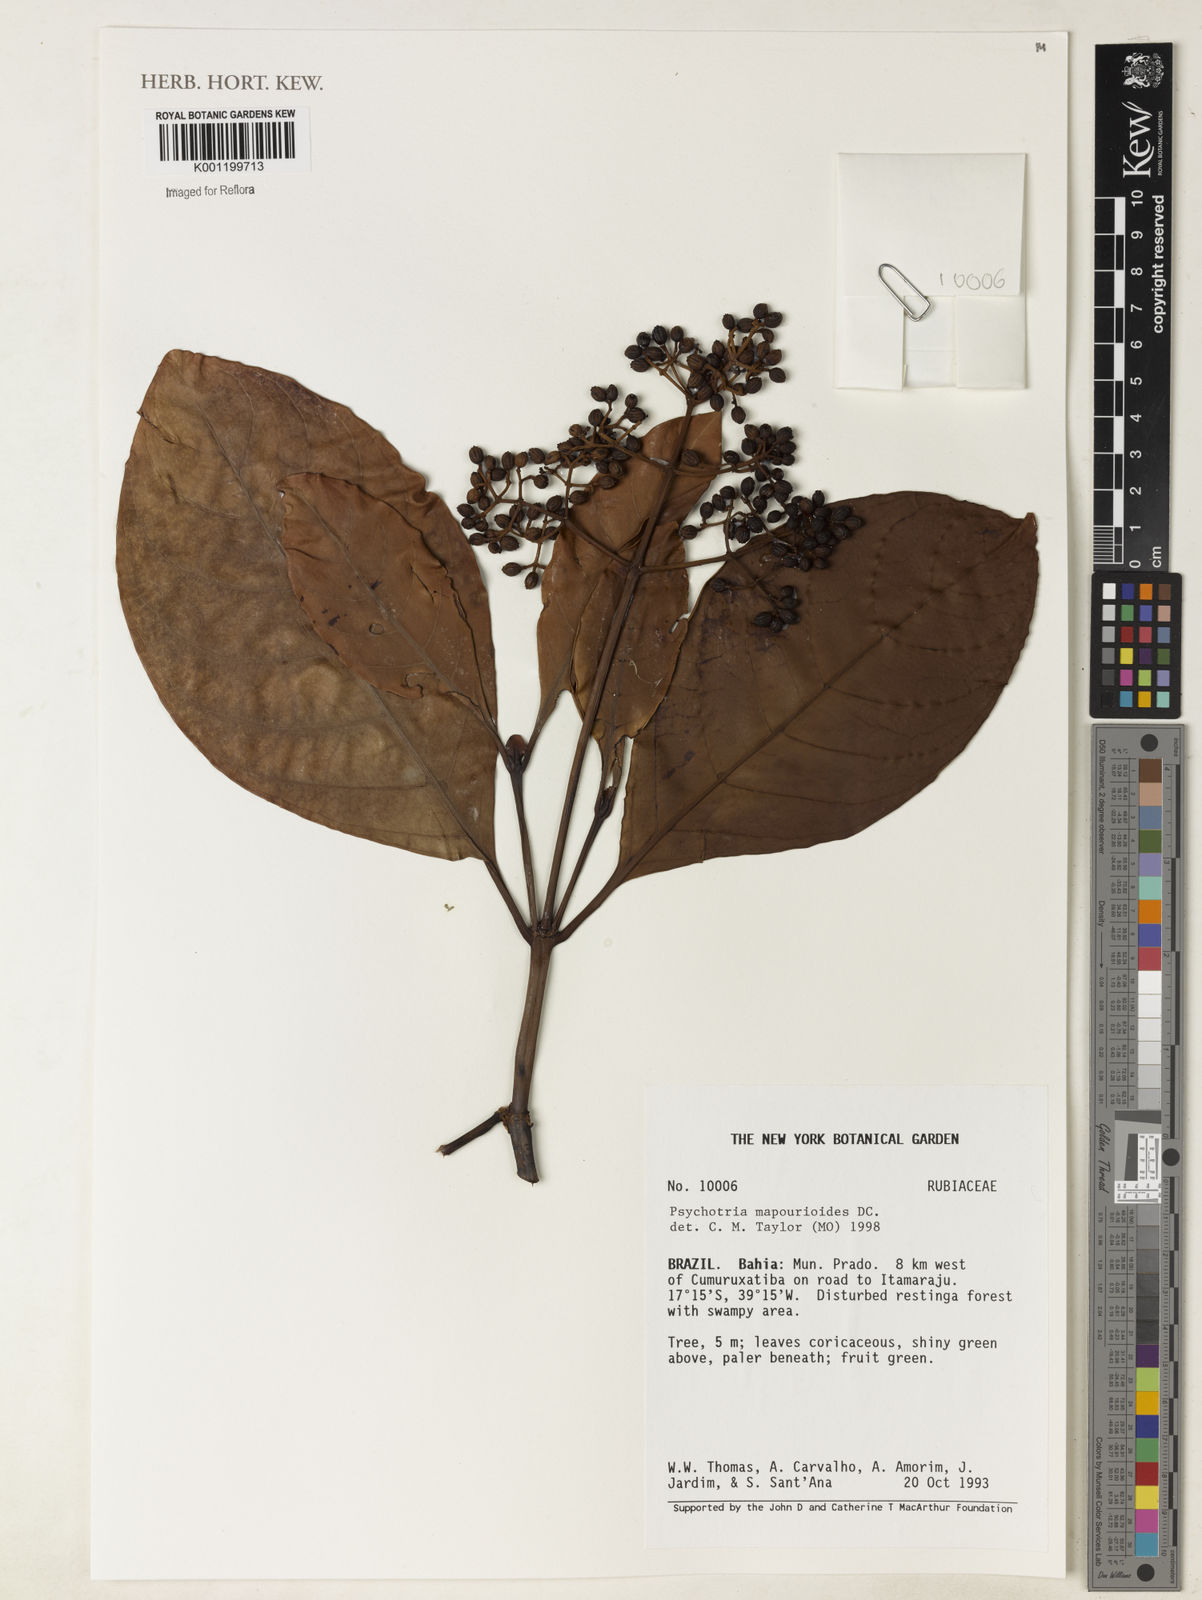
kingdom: Plantae
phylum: Tracheophyta
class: Magnoliopsida
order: Gentianales
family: Rubiaceae
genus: Psychotria
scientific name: Psychotria pedunculosa
